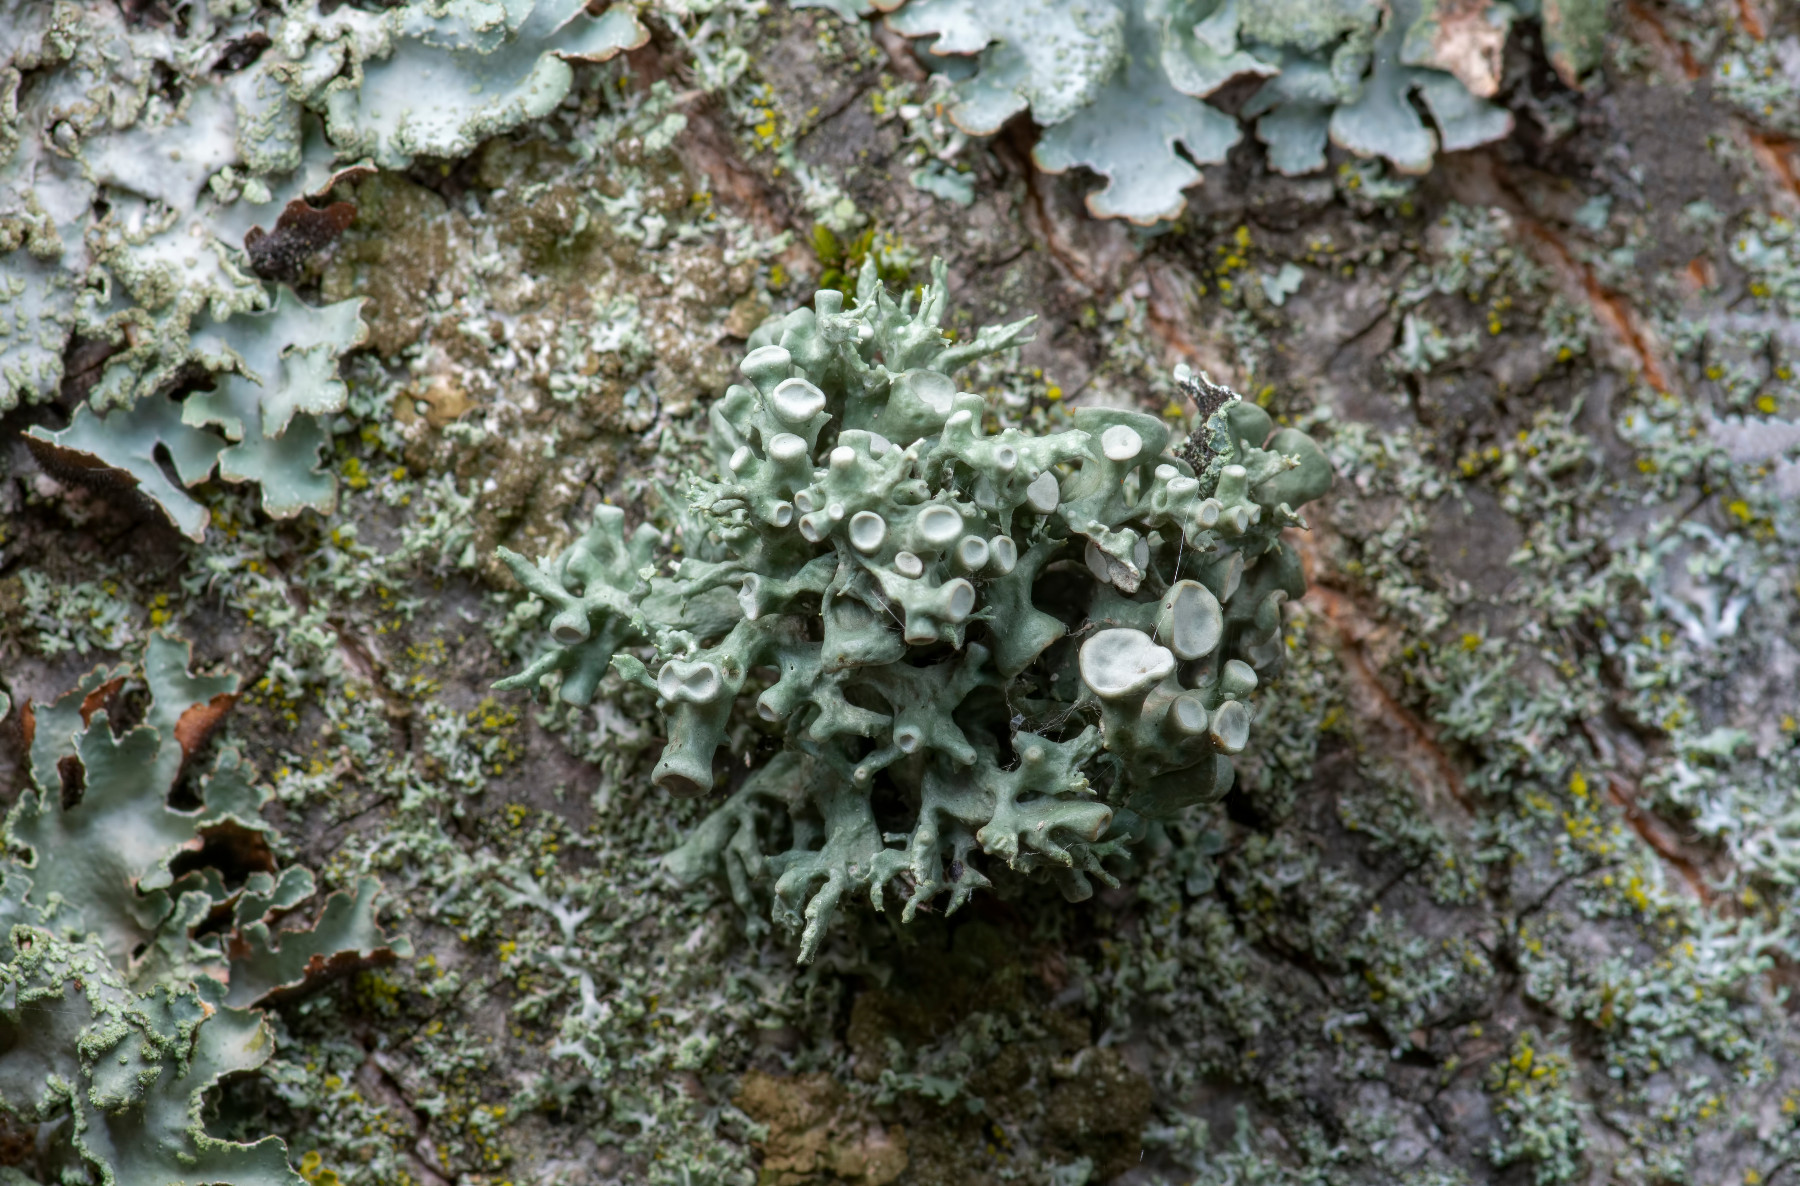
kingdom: Fungi
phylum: Ascomycota
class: Lecanoromycetes
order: Lecanorales
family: Ramalinaceae
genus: Ramalina
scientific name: Ramalina fastigiata
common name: tue-grenlav
